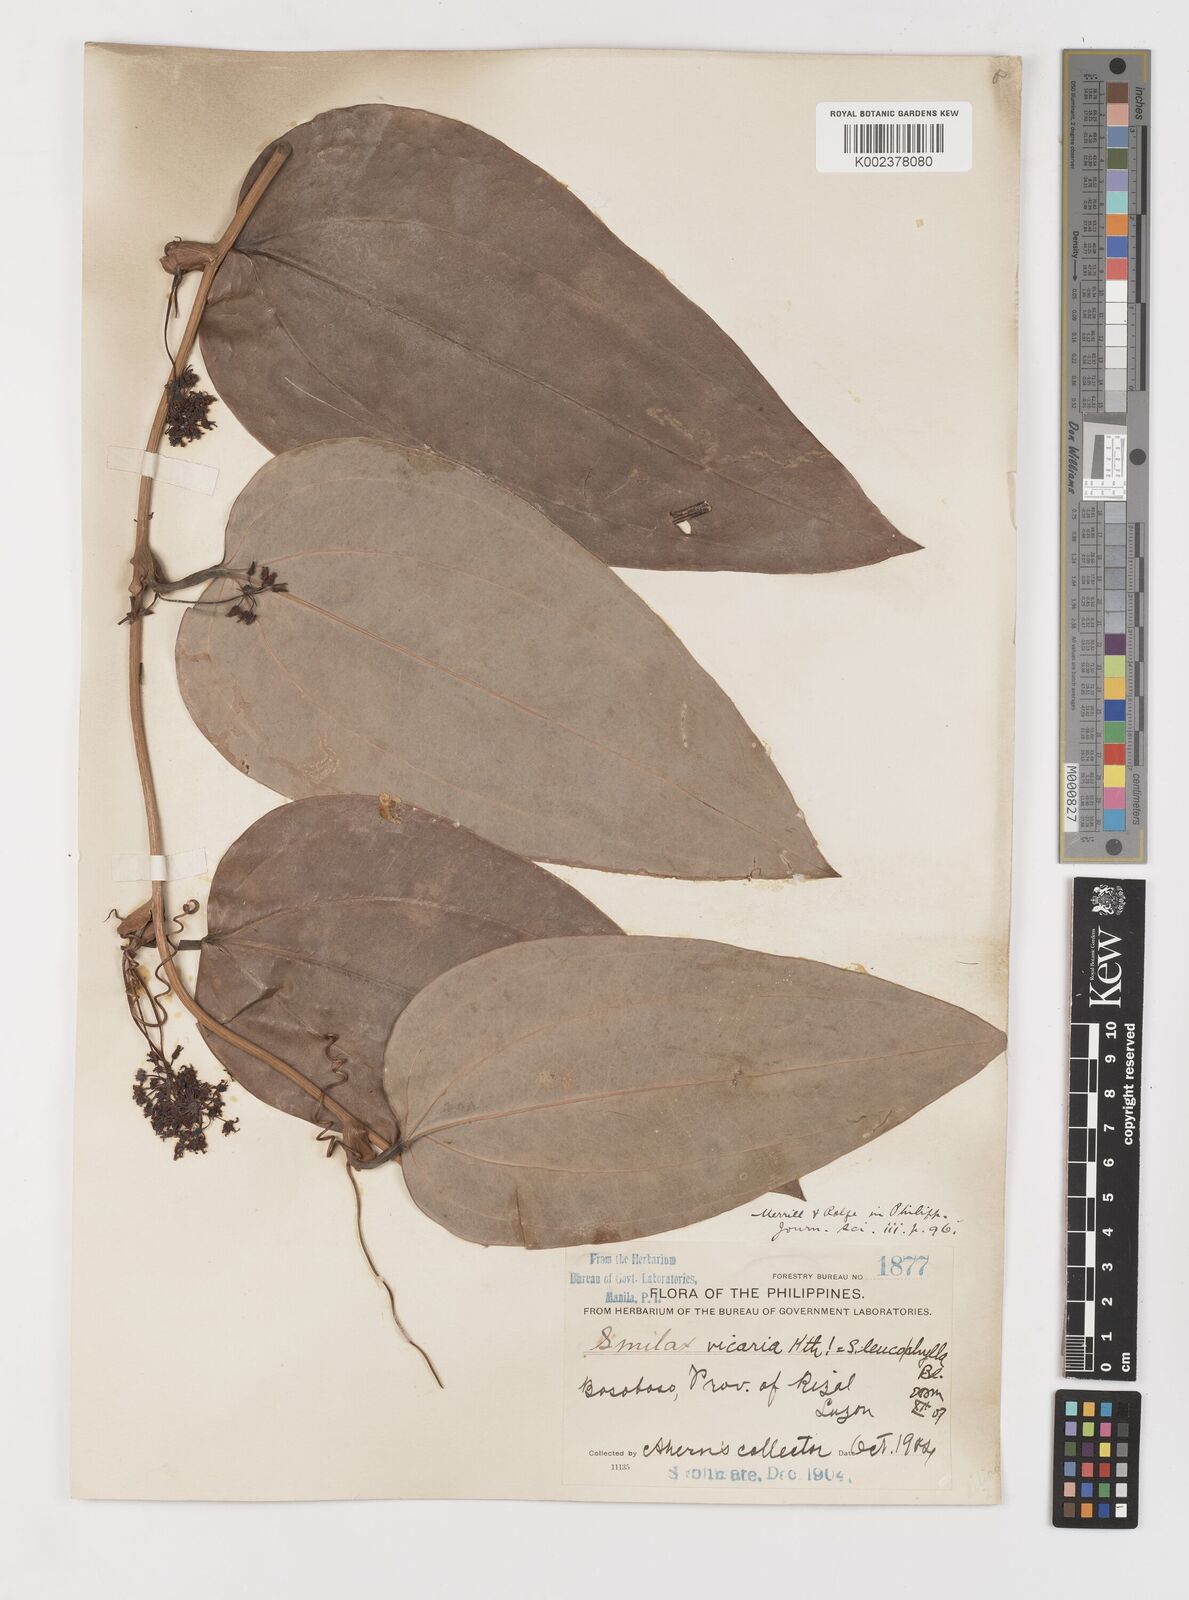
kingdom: Plantae
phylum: Tracheophyta
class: Liliopsida
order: Liliales
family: Smilacaceae
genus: Smilax
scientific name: Smilax leucophylla
